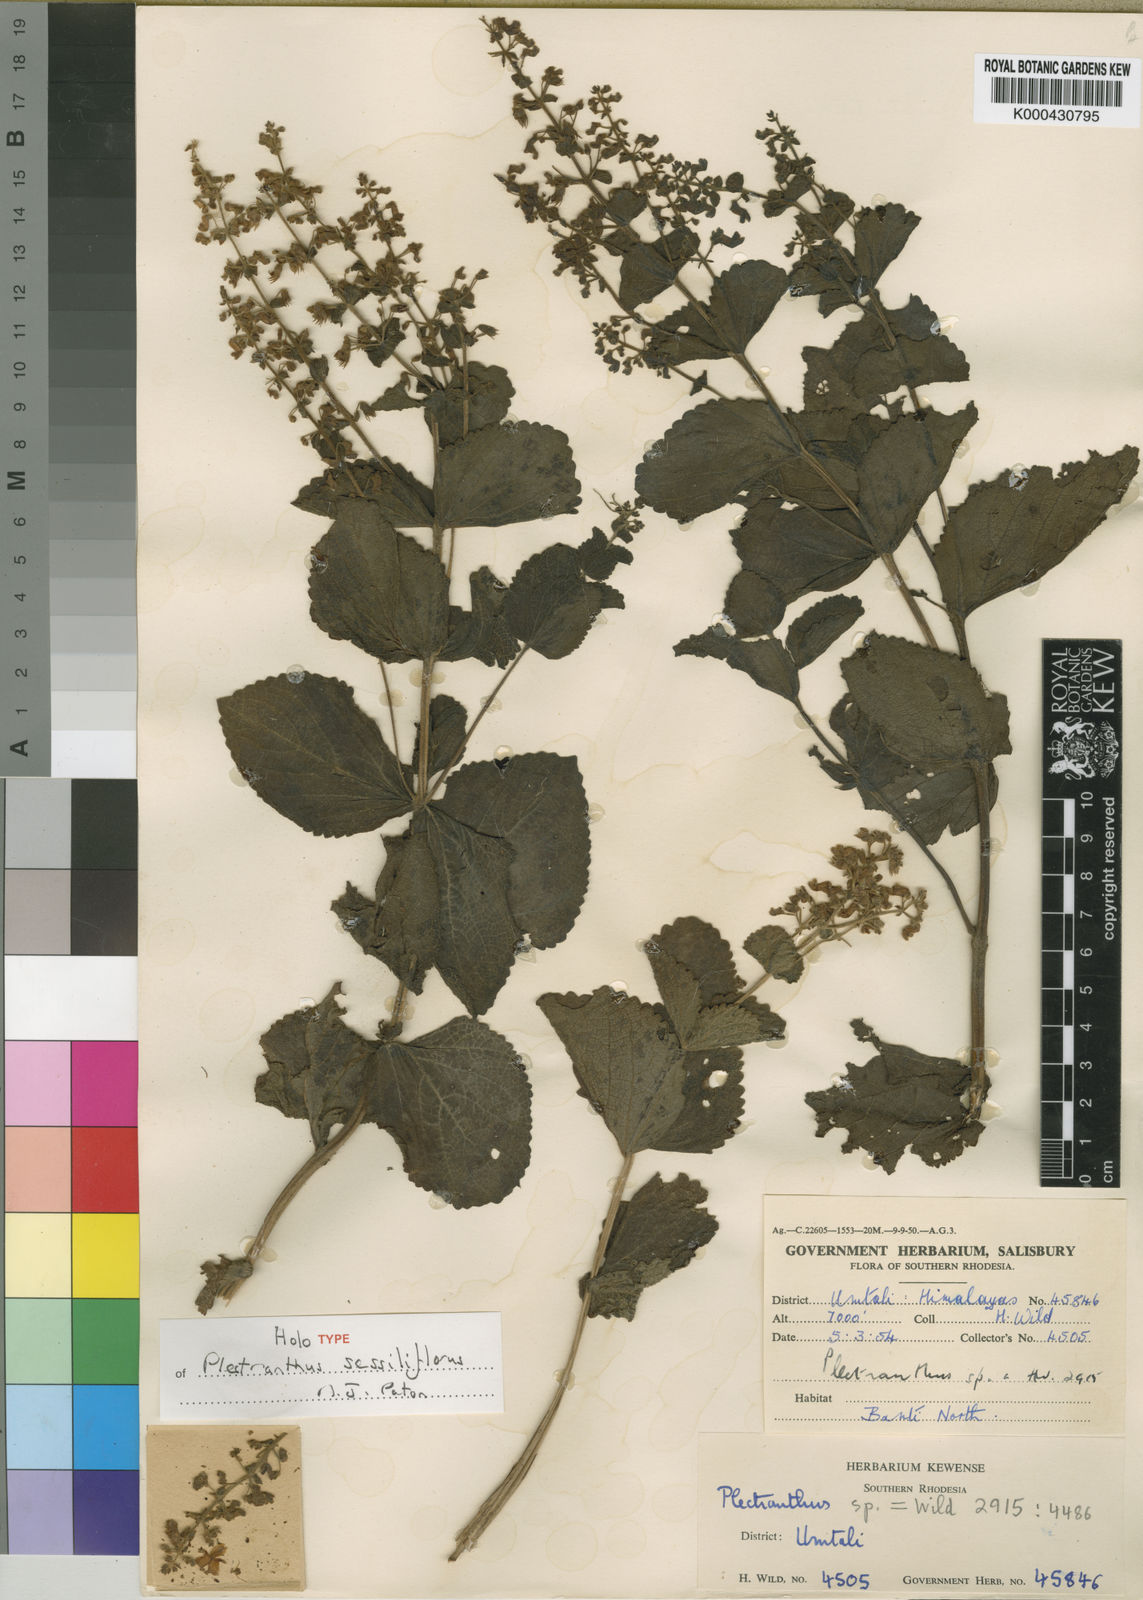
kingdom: Plantae
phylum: Tracheophyta
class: Magnoliopsida
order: Lamiales
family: Lamiaceae
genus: Coleus
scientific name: Coleus zombensis
